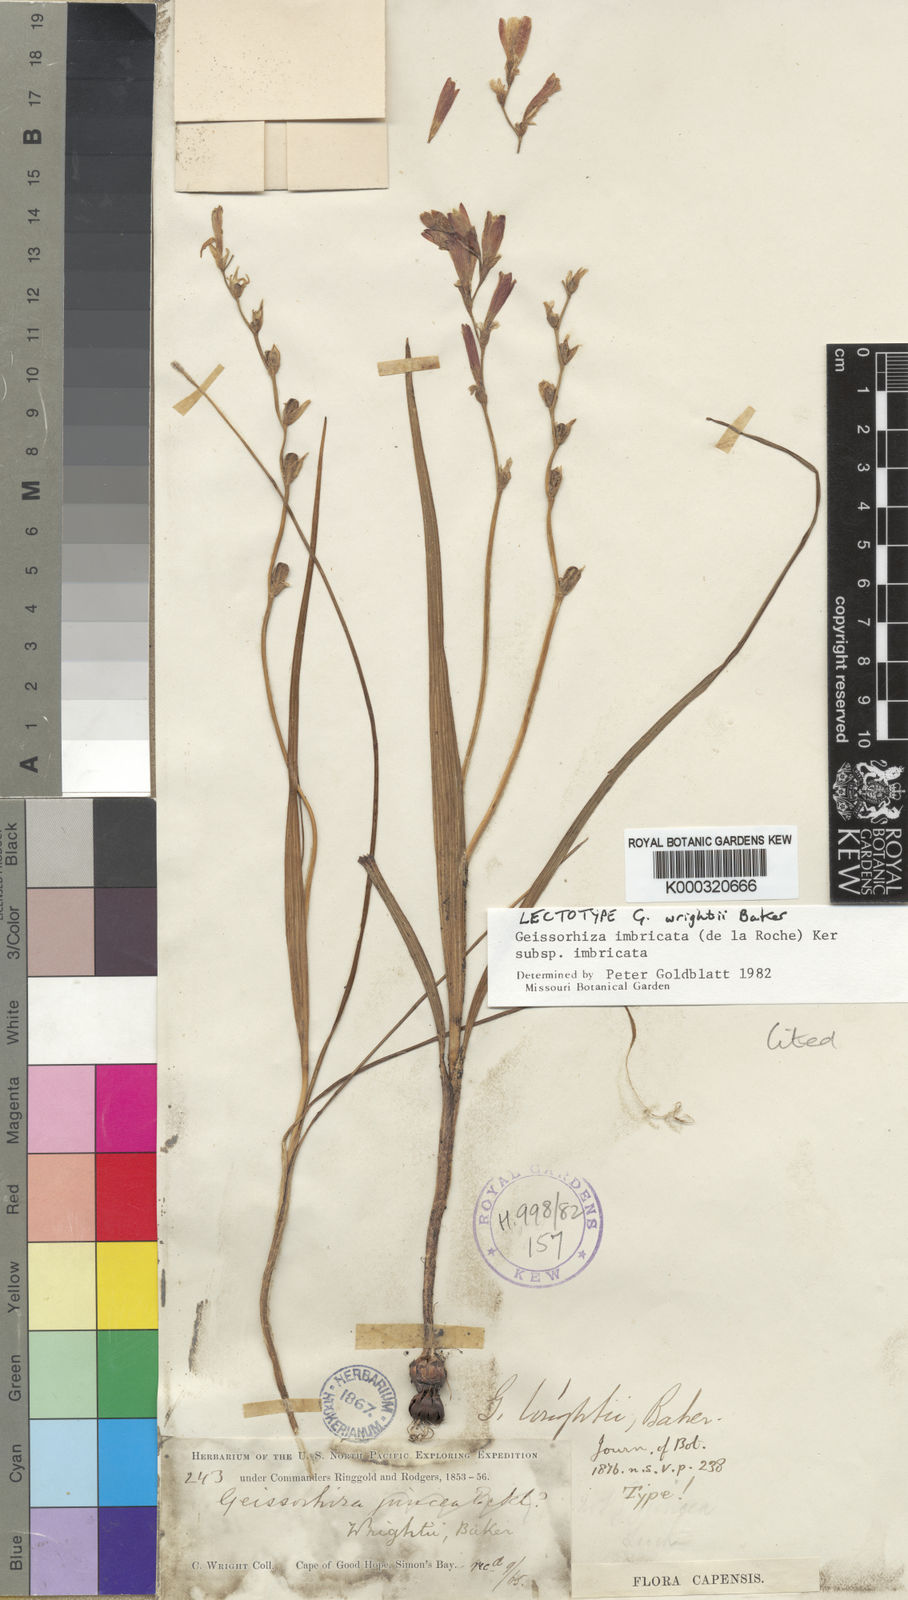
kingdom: Plantae
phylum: Tracheophyta
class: Liliopsida
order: Asparagales
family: Iridaceae
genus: Geissorhiza
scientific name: Geissorhiza imbricata
